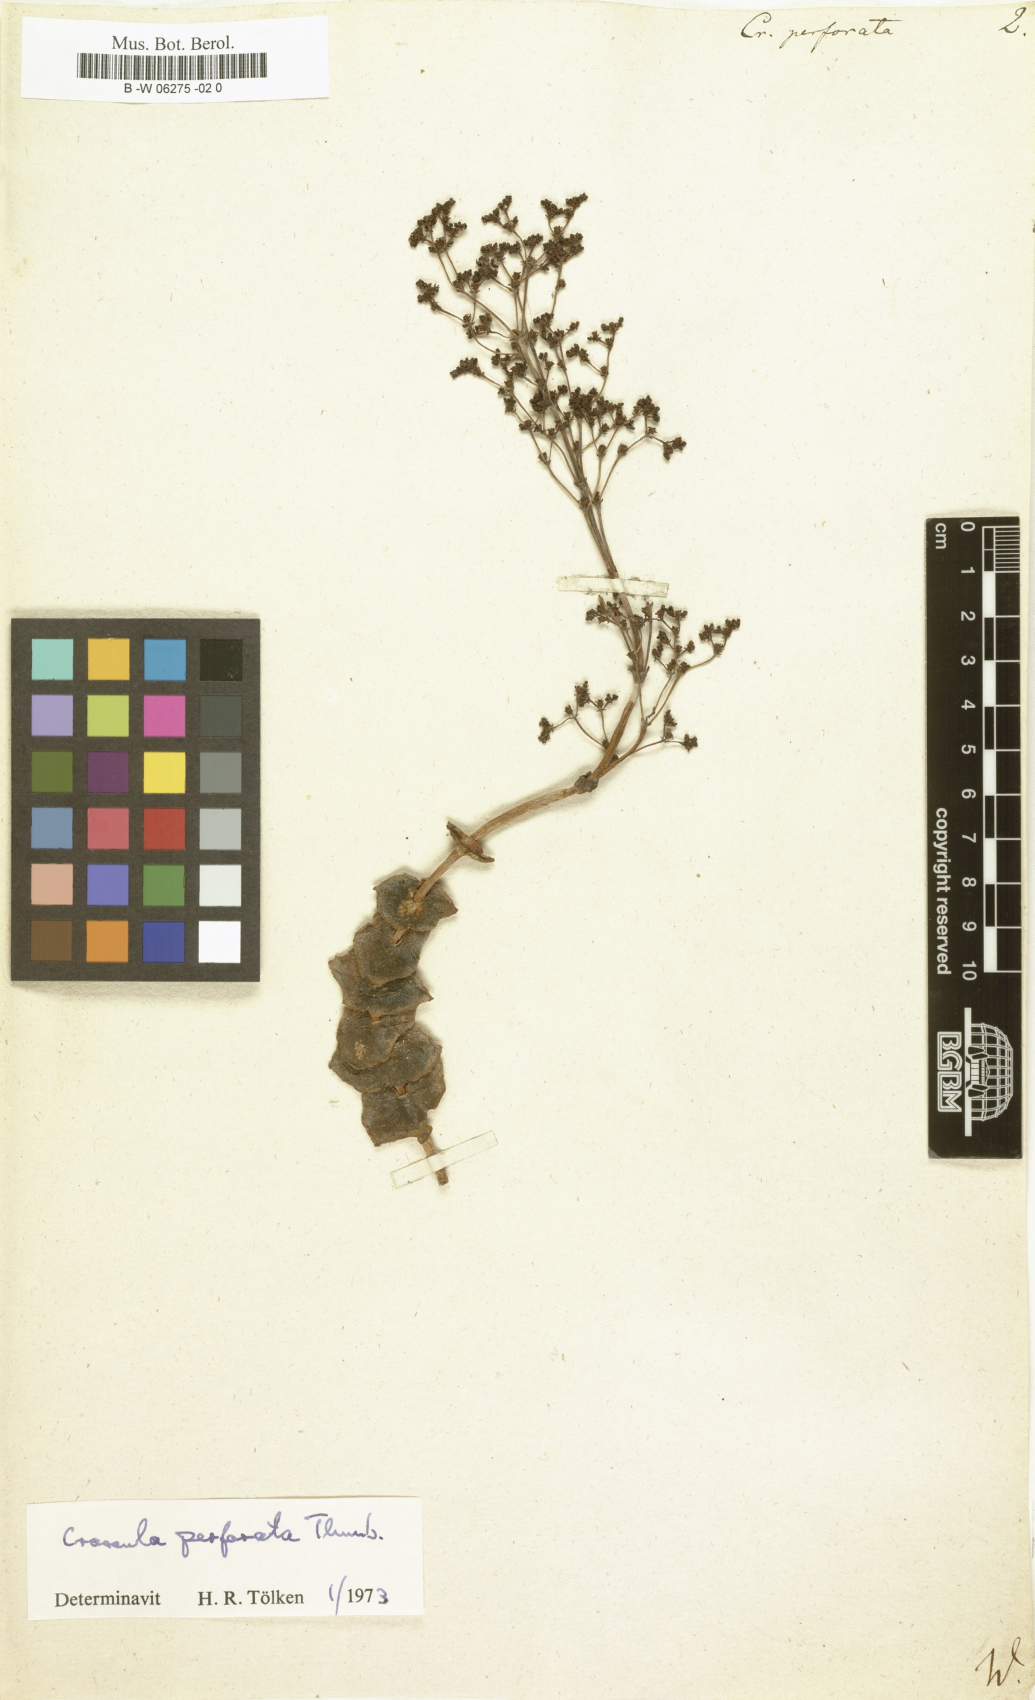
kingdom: Plantae
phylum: Tracheophyta
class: Magnoliopsida
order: Saxifragales
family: Crassulaceae
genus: Crassula
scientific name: Crassula perforata
